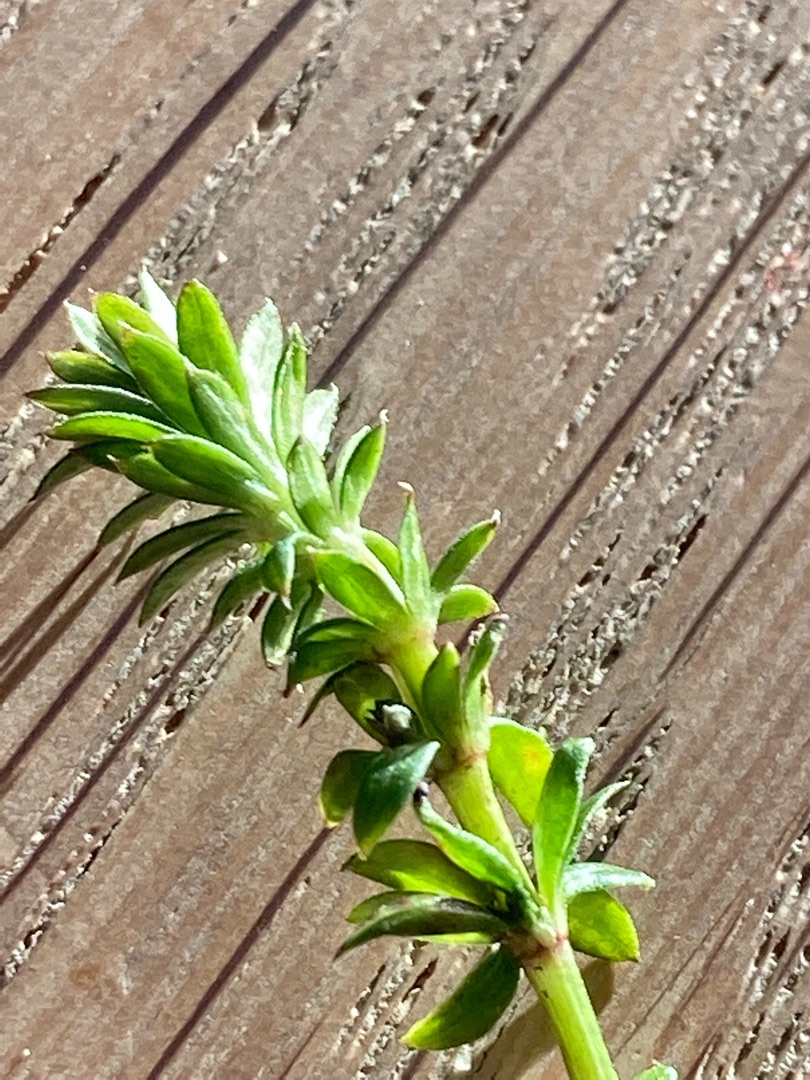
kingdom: Plantae
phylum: Tracheophyta
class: Magnoliopsida
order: Gentianales
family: Rubiaceae
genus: Galium
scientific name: Galium mollugo
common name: Hvid snerre
